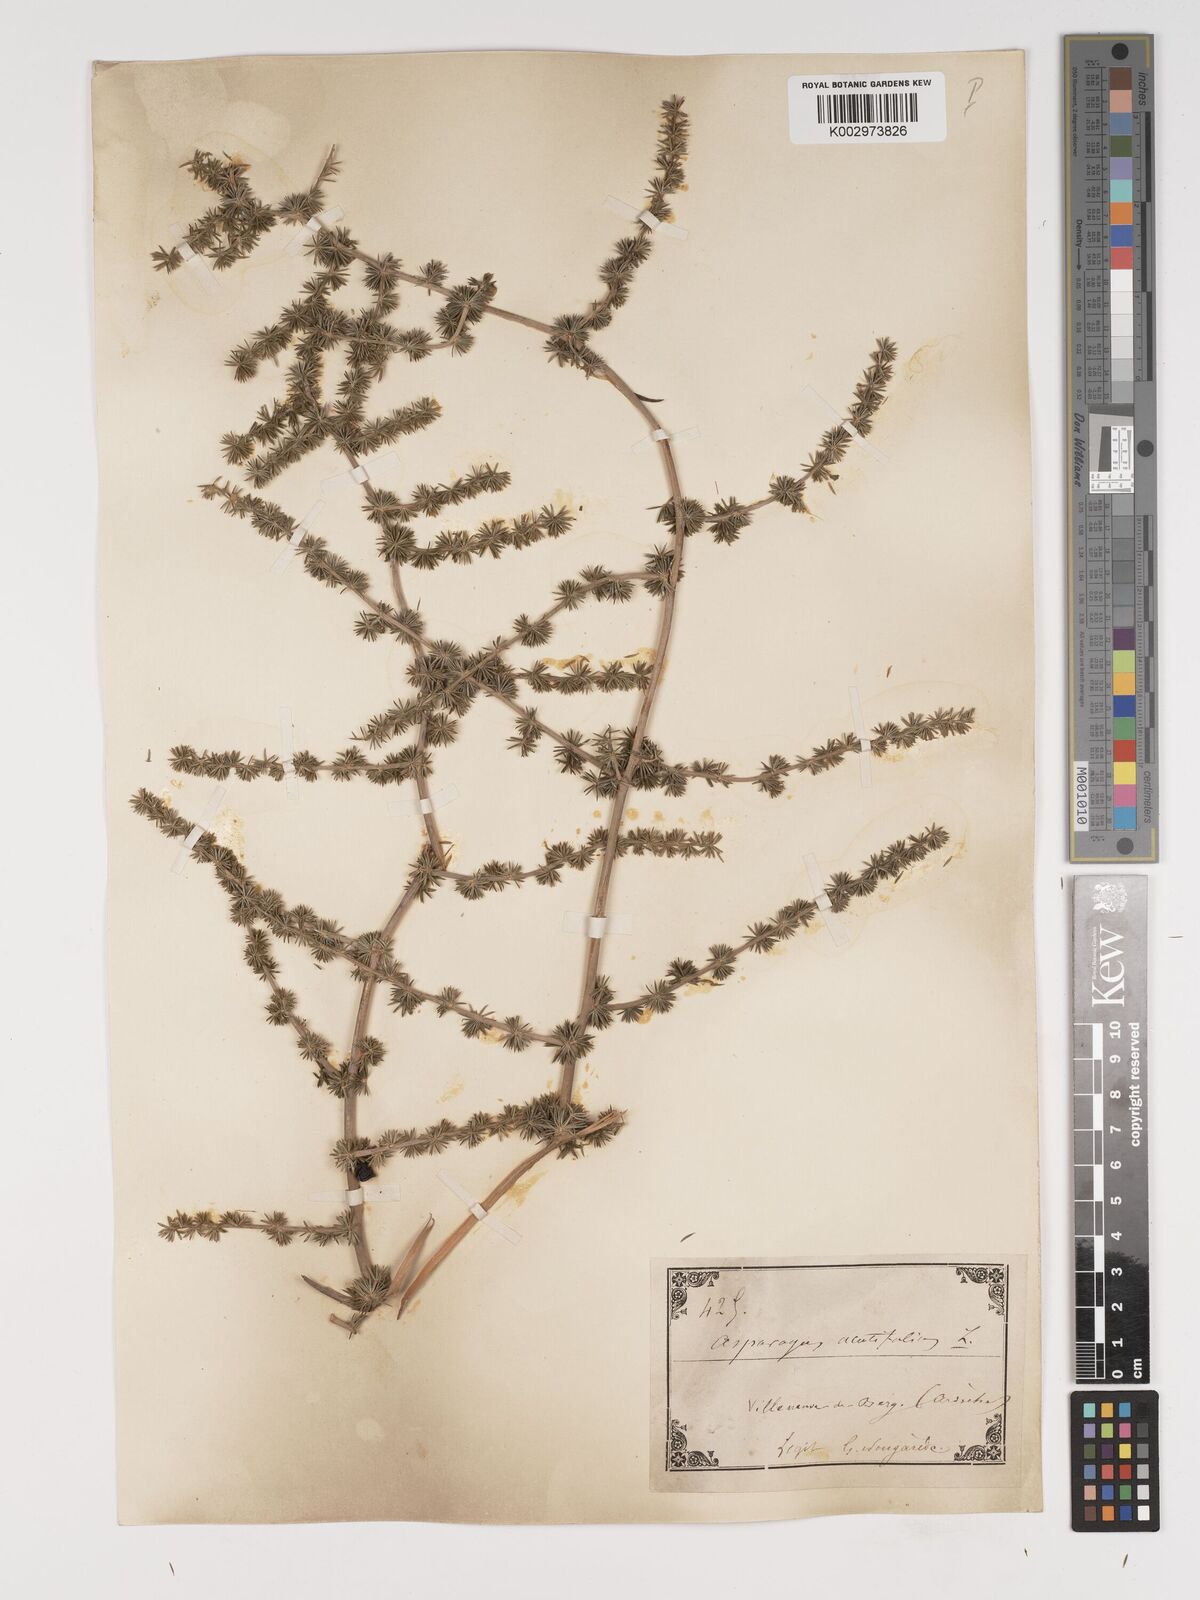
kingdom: Plantae
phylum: Tracheophyta
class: Liliopsida
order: Asparagales
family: Asparagaceae
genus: Asparagus
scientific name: Asparagus aethiopicus
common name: Sprenger's asparagus fern
